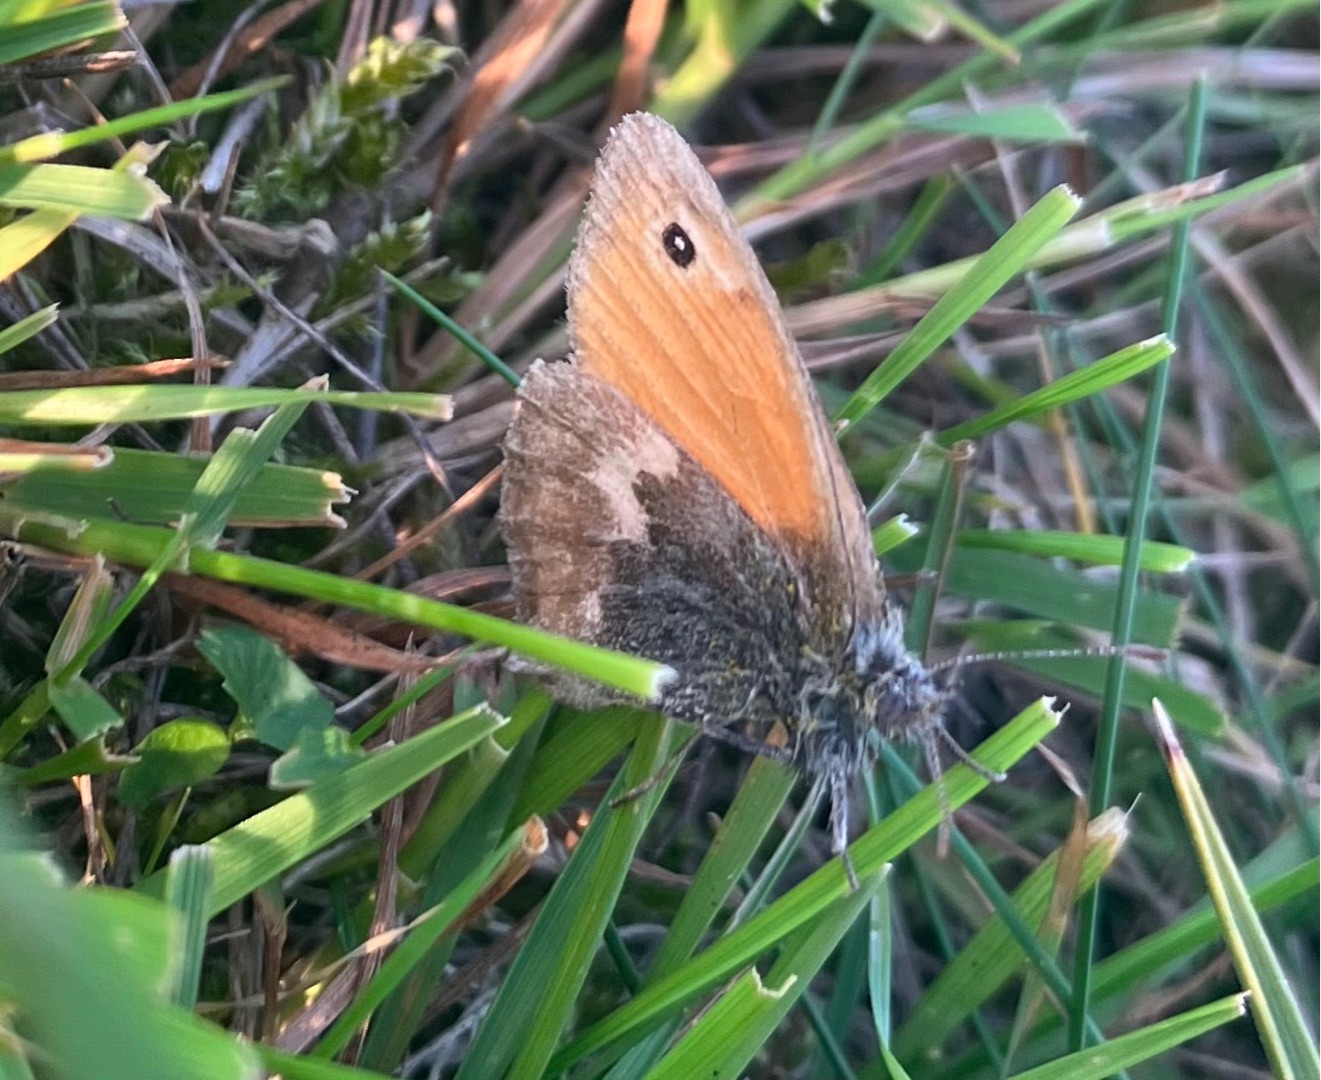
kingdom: Animalia
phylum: Arthropoda
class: Insecta
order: Lepidoptera
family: Nymphalidae
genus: Coenonympha
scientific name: Coenonympha pamphilus
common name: Okkergul randøje
